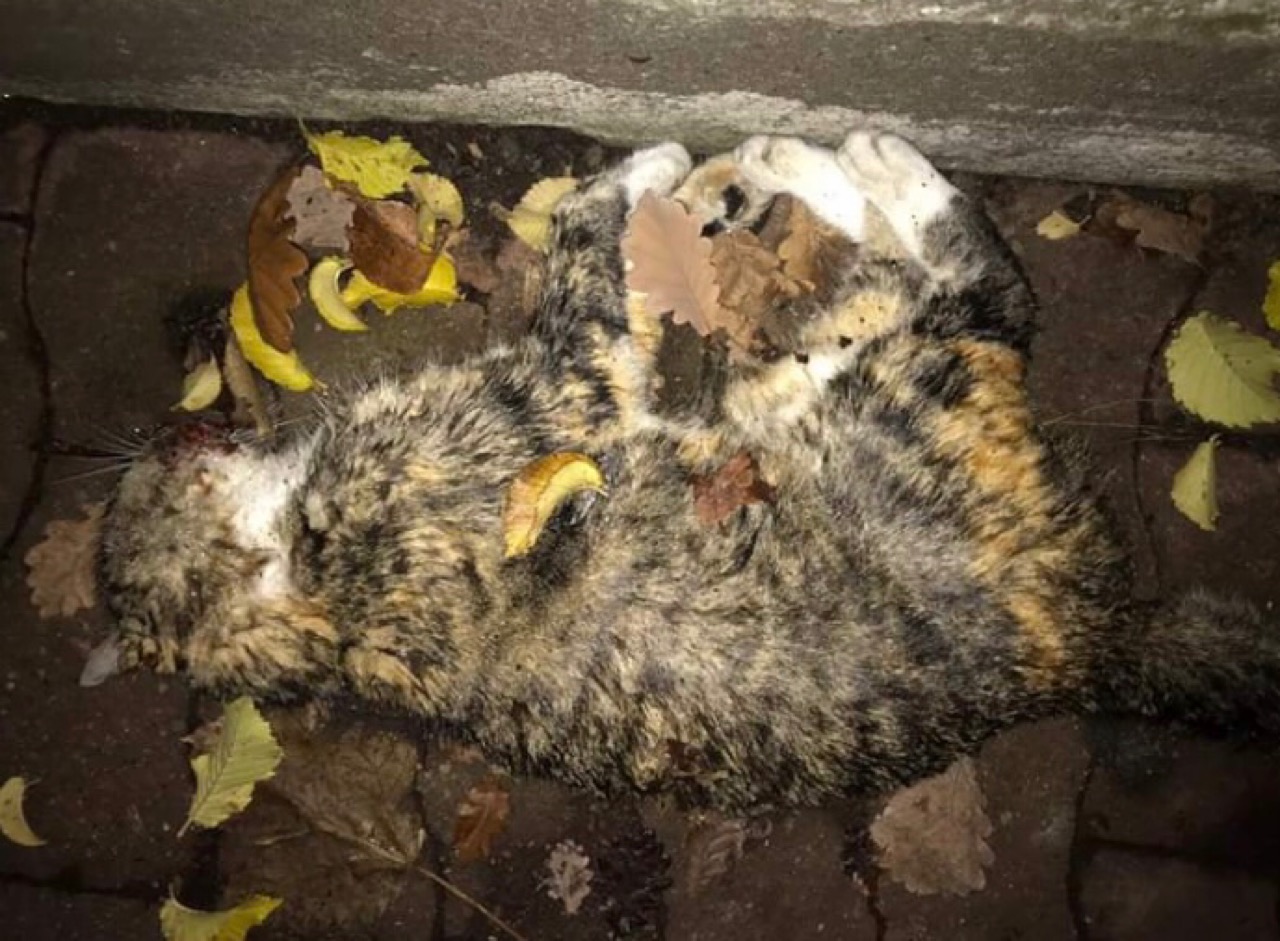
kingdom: Animalia
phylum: Chordata
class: Mammalia
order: Carnivora
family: Felidae
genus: Felis
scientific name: Felis catus
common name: Domestic cat
